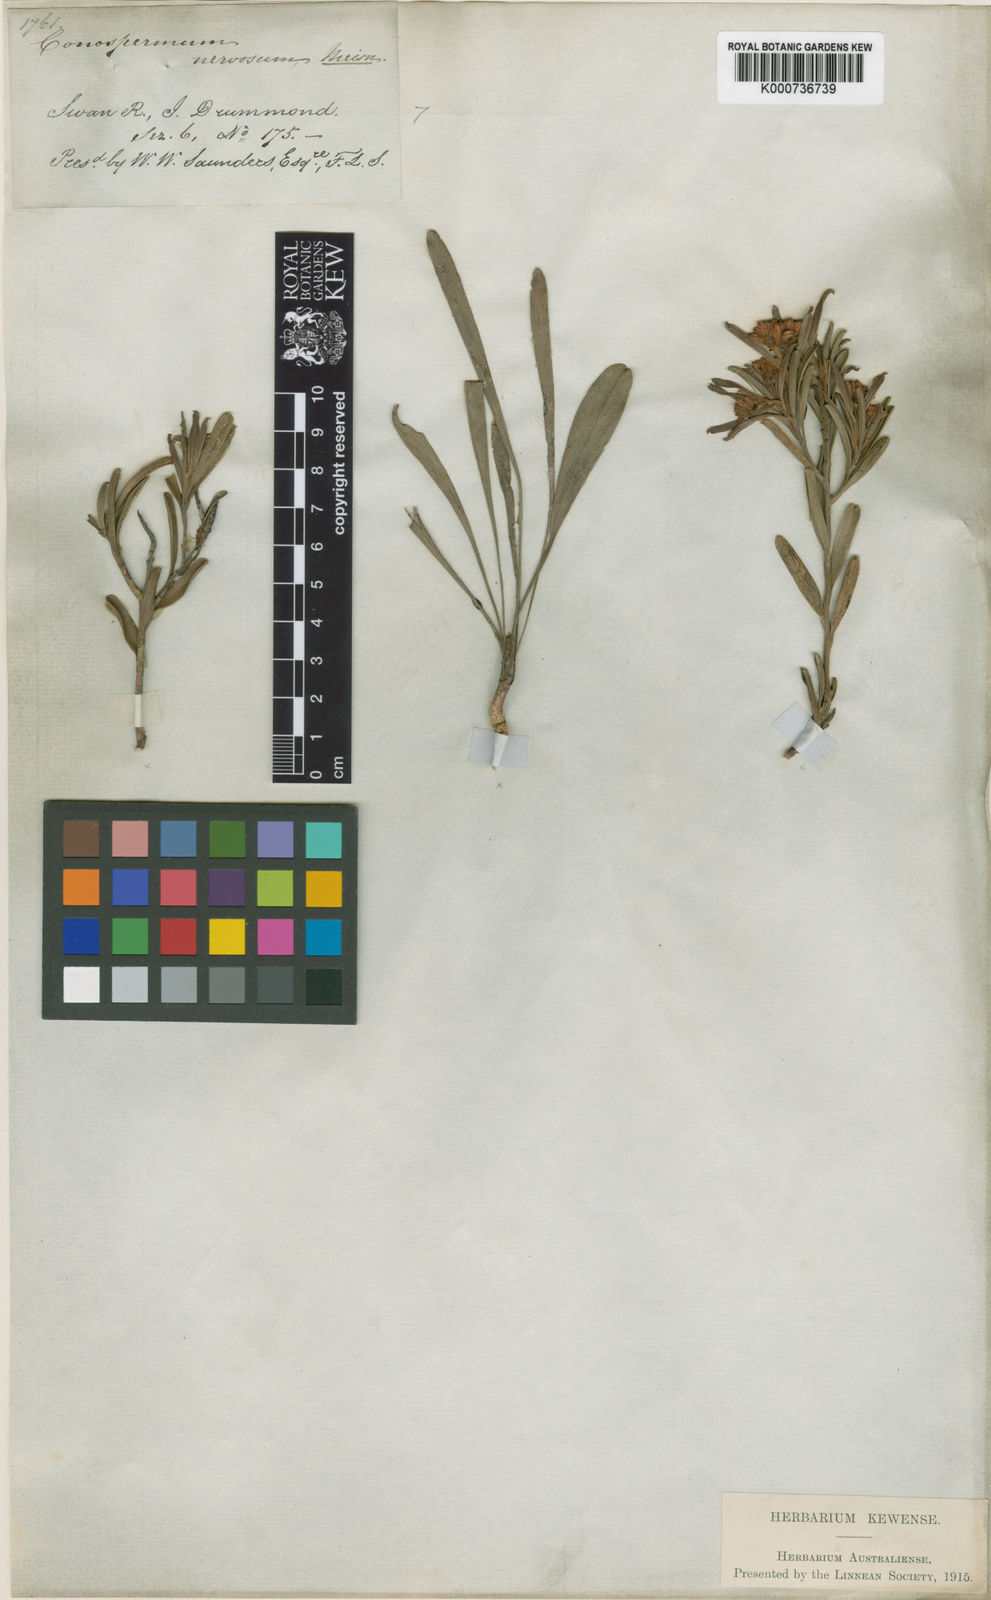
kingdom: Plantae
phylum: Tracheophyta
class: Magnoliopsida
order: Proteales
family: Proteaceae
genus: Conospermum
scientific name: Conospermum nervosum
